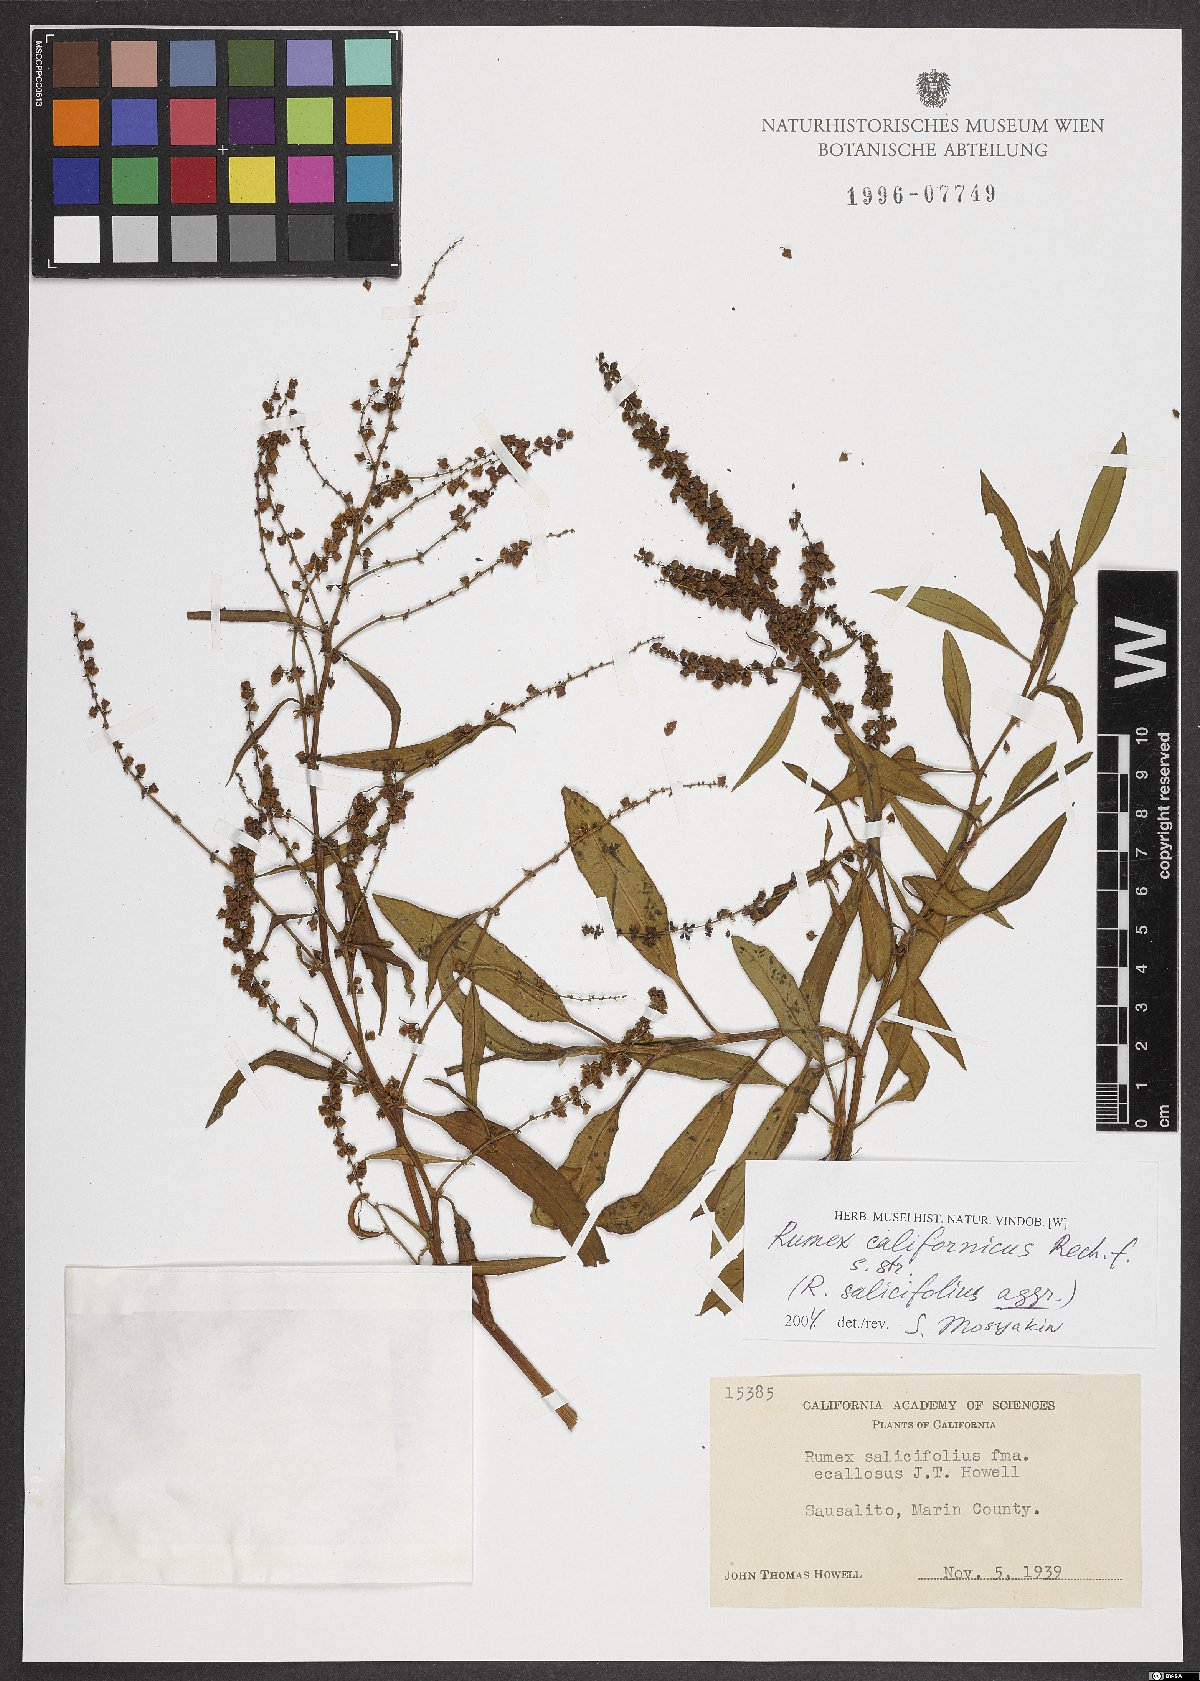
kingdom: Plantae
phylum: Tracheophyta
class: Magnoliopsida
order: Caryophyllales
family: Polygonaceae
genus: Rumex
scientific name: Rumex californicus
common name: California willow dock
